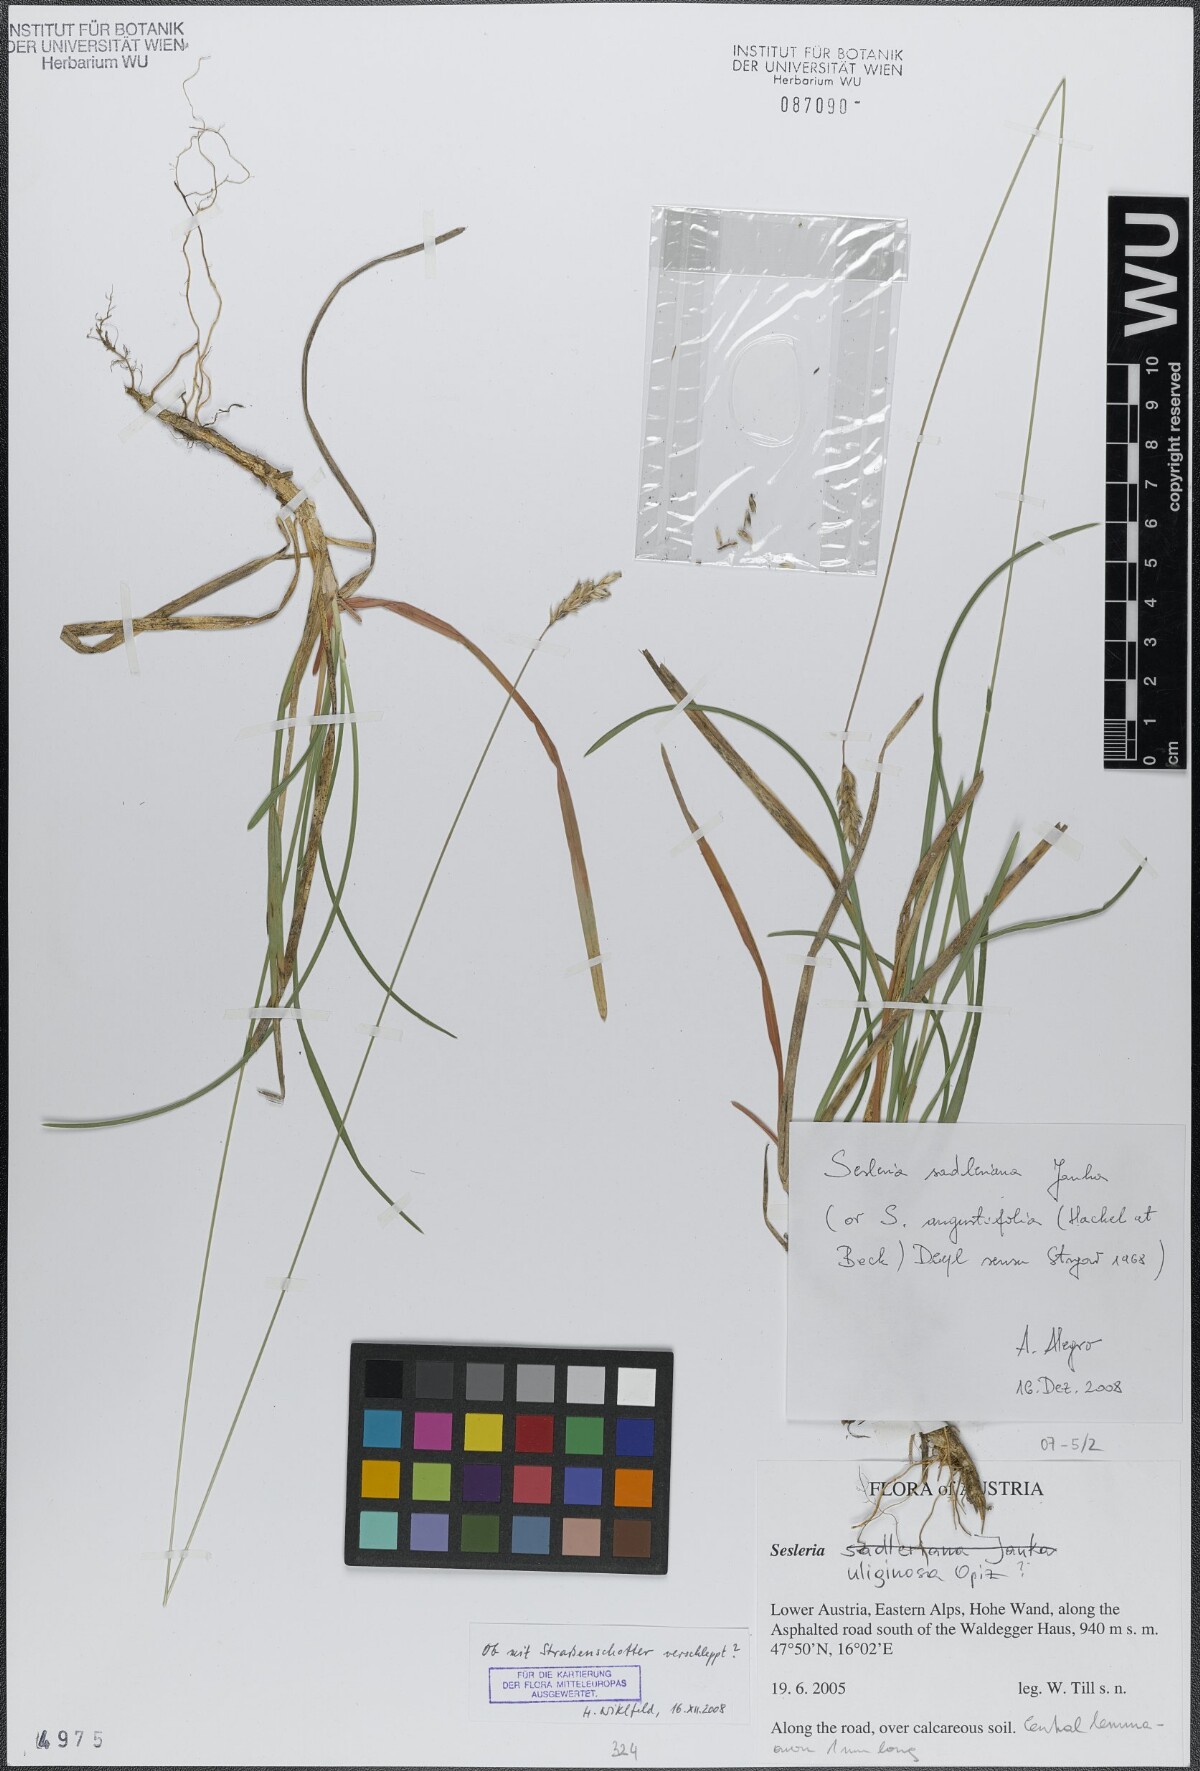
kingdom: Plantae
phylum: Tracheophyta
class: Liliopsida
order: Poales
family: Poaceae
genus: Sesleria
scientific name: Sesleria sadleriana
